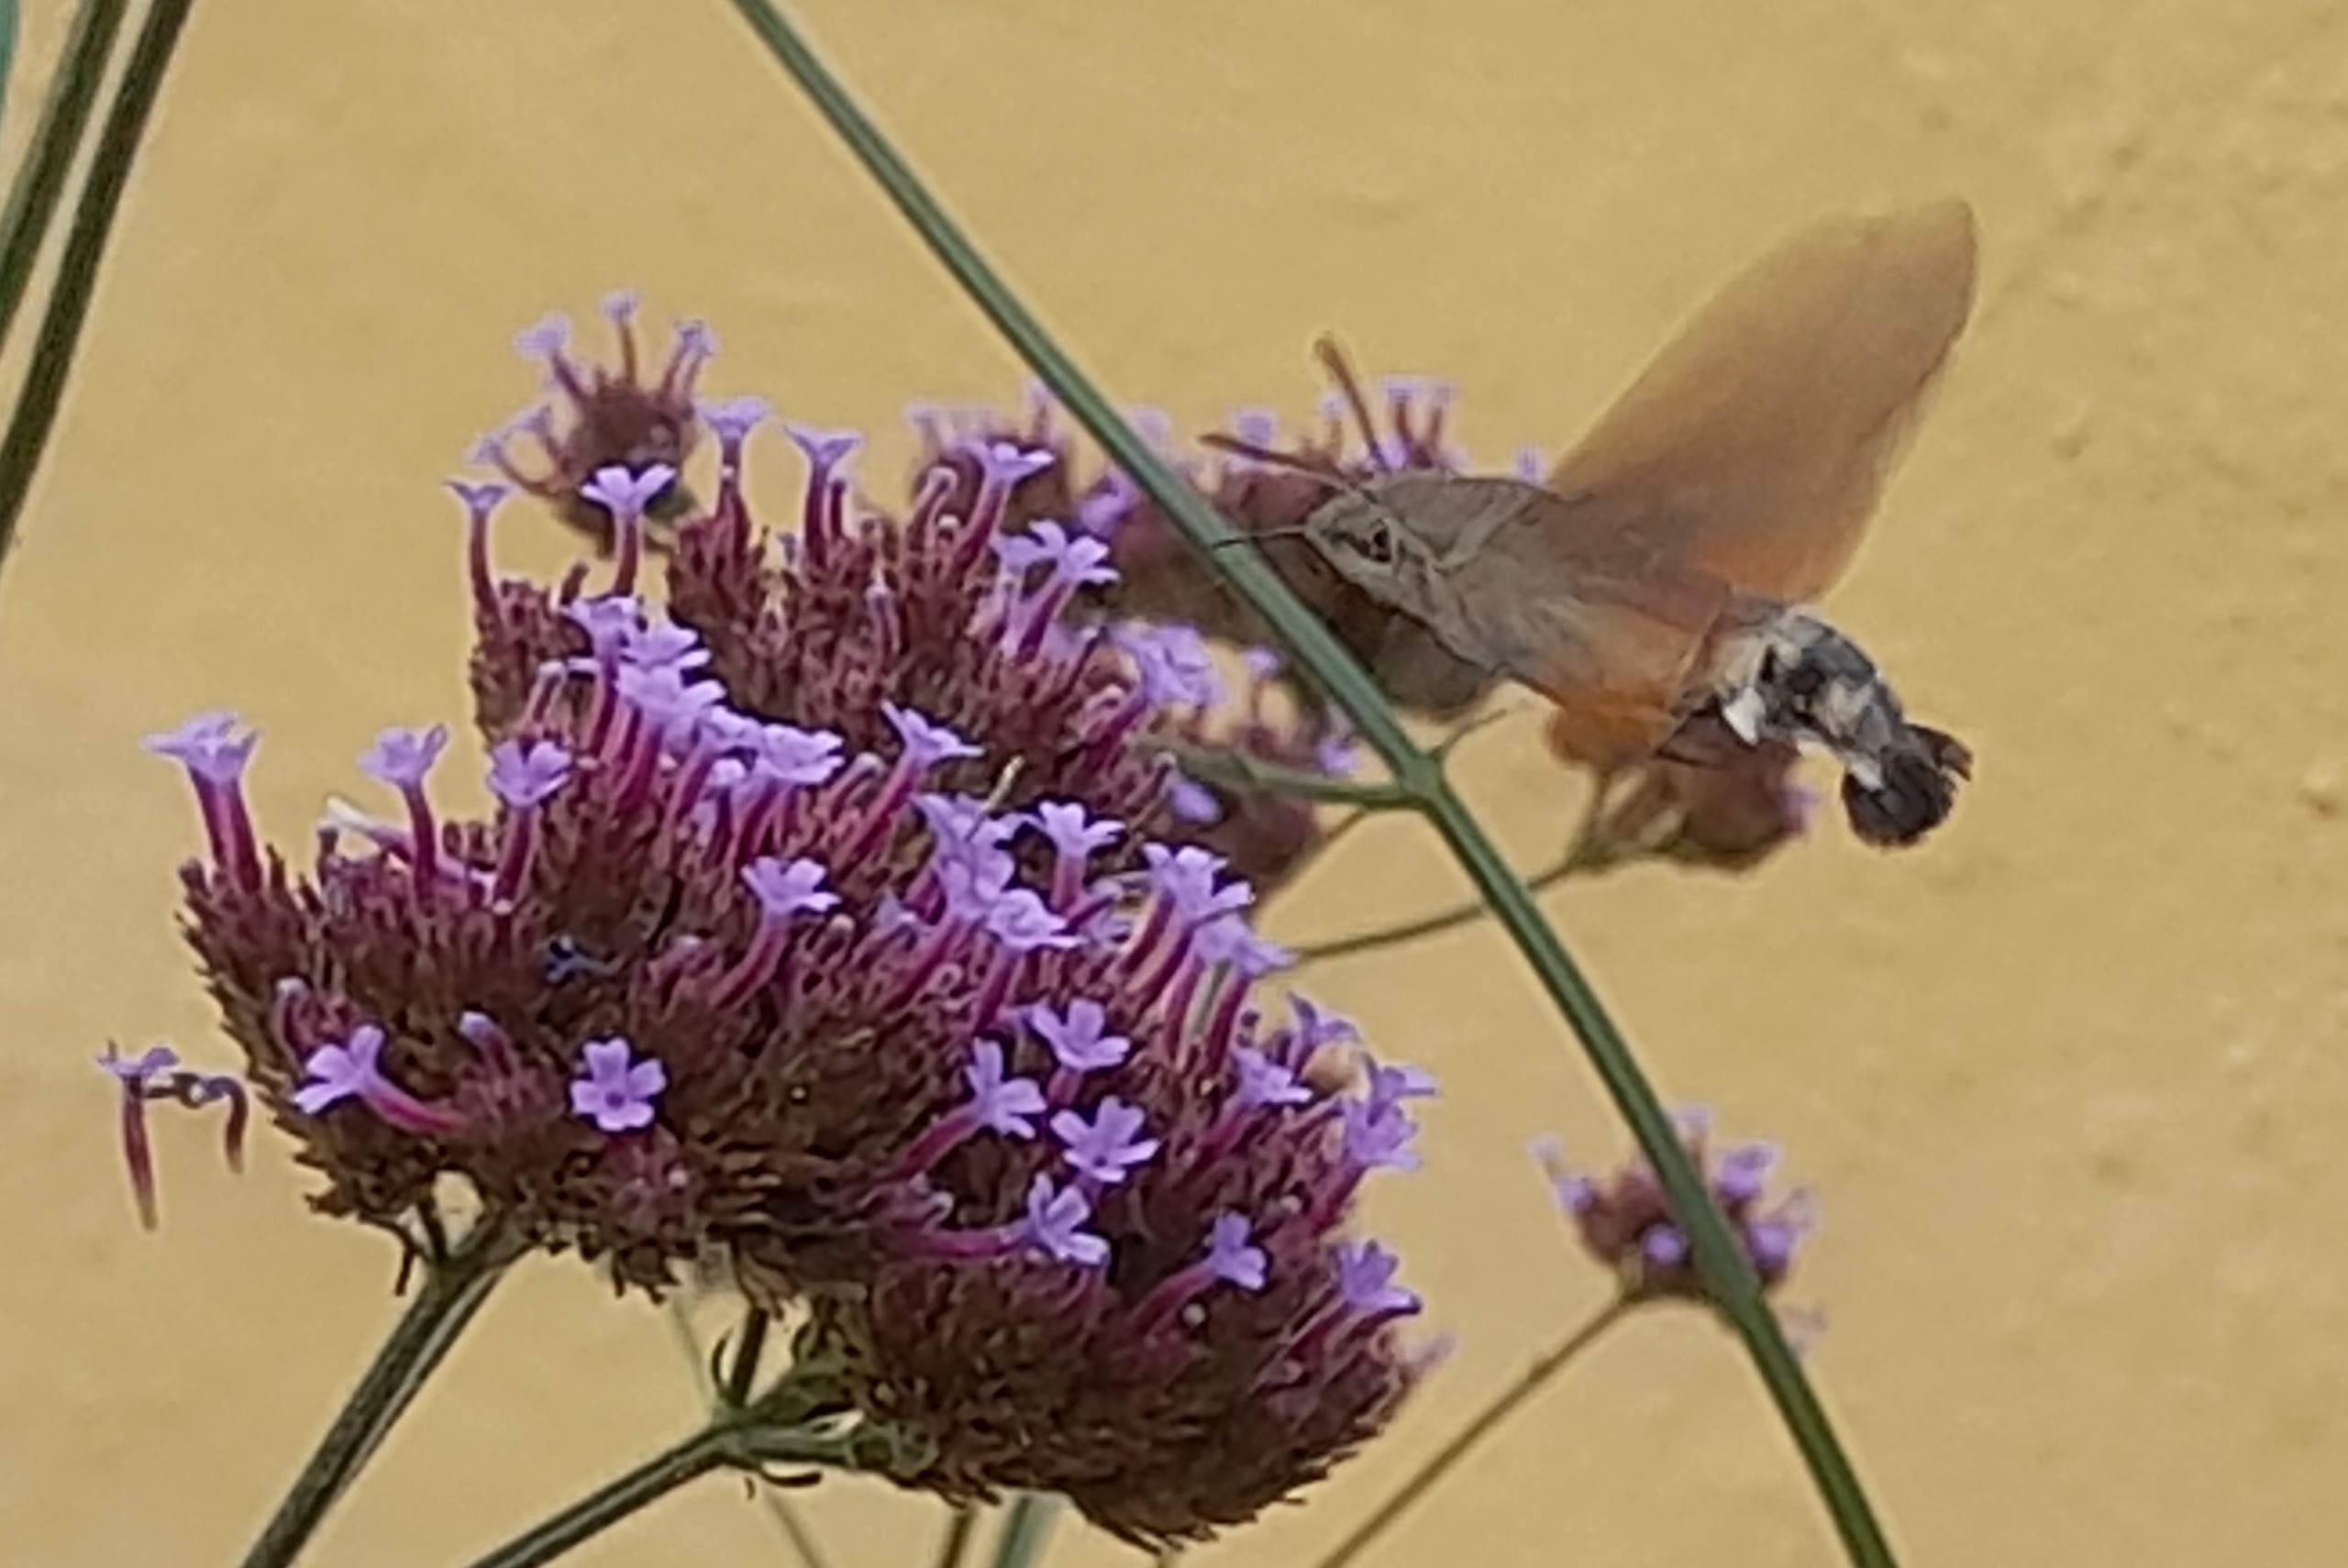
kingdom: Animalia
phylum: Arthropoda
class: Insecta
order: Lepidoptera
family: Sphingidae
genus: Macroglossum
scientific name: Macroglossum stellatarum
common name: Duehale
